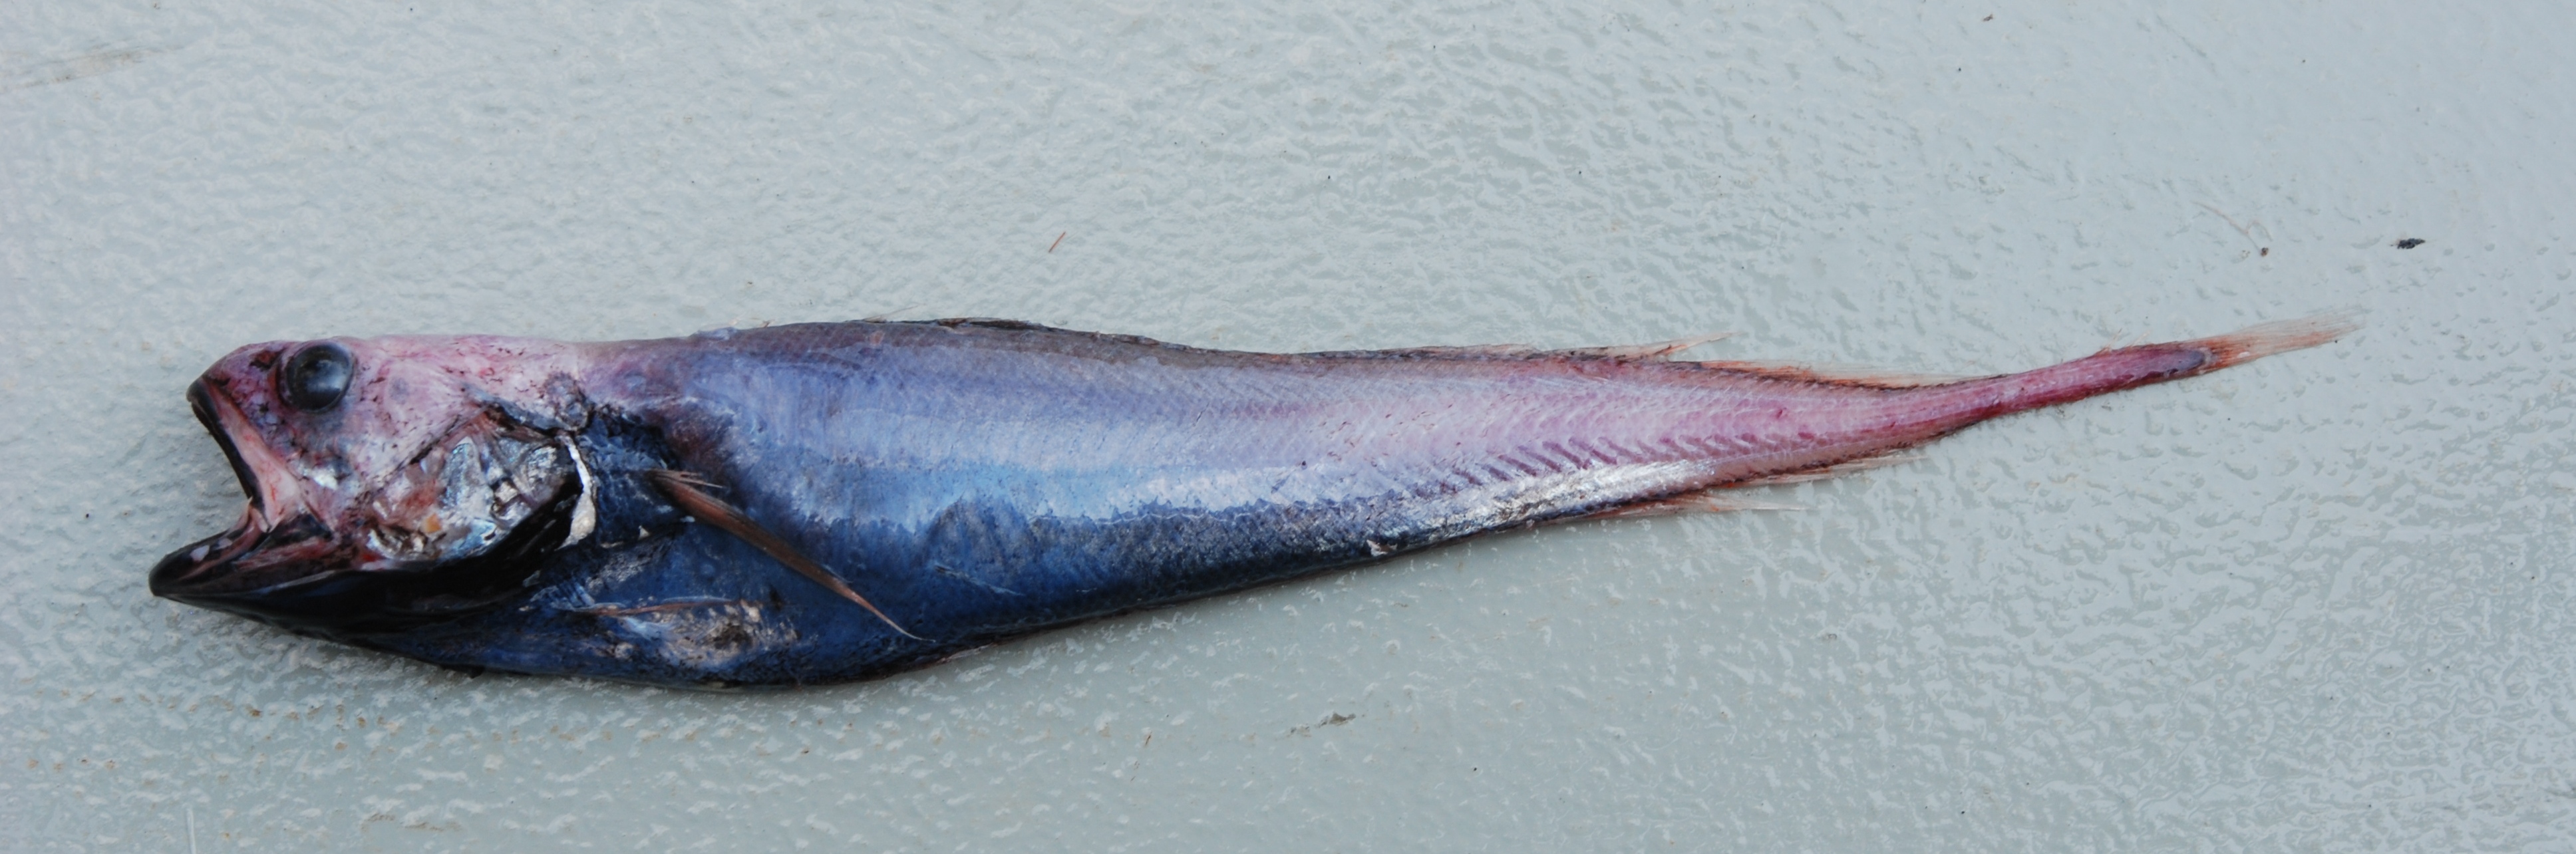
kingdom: Animalia
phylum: Chordata
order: Gadiformes
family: Moridae
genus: Laemonema
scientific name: Laemonema
